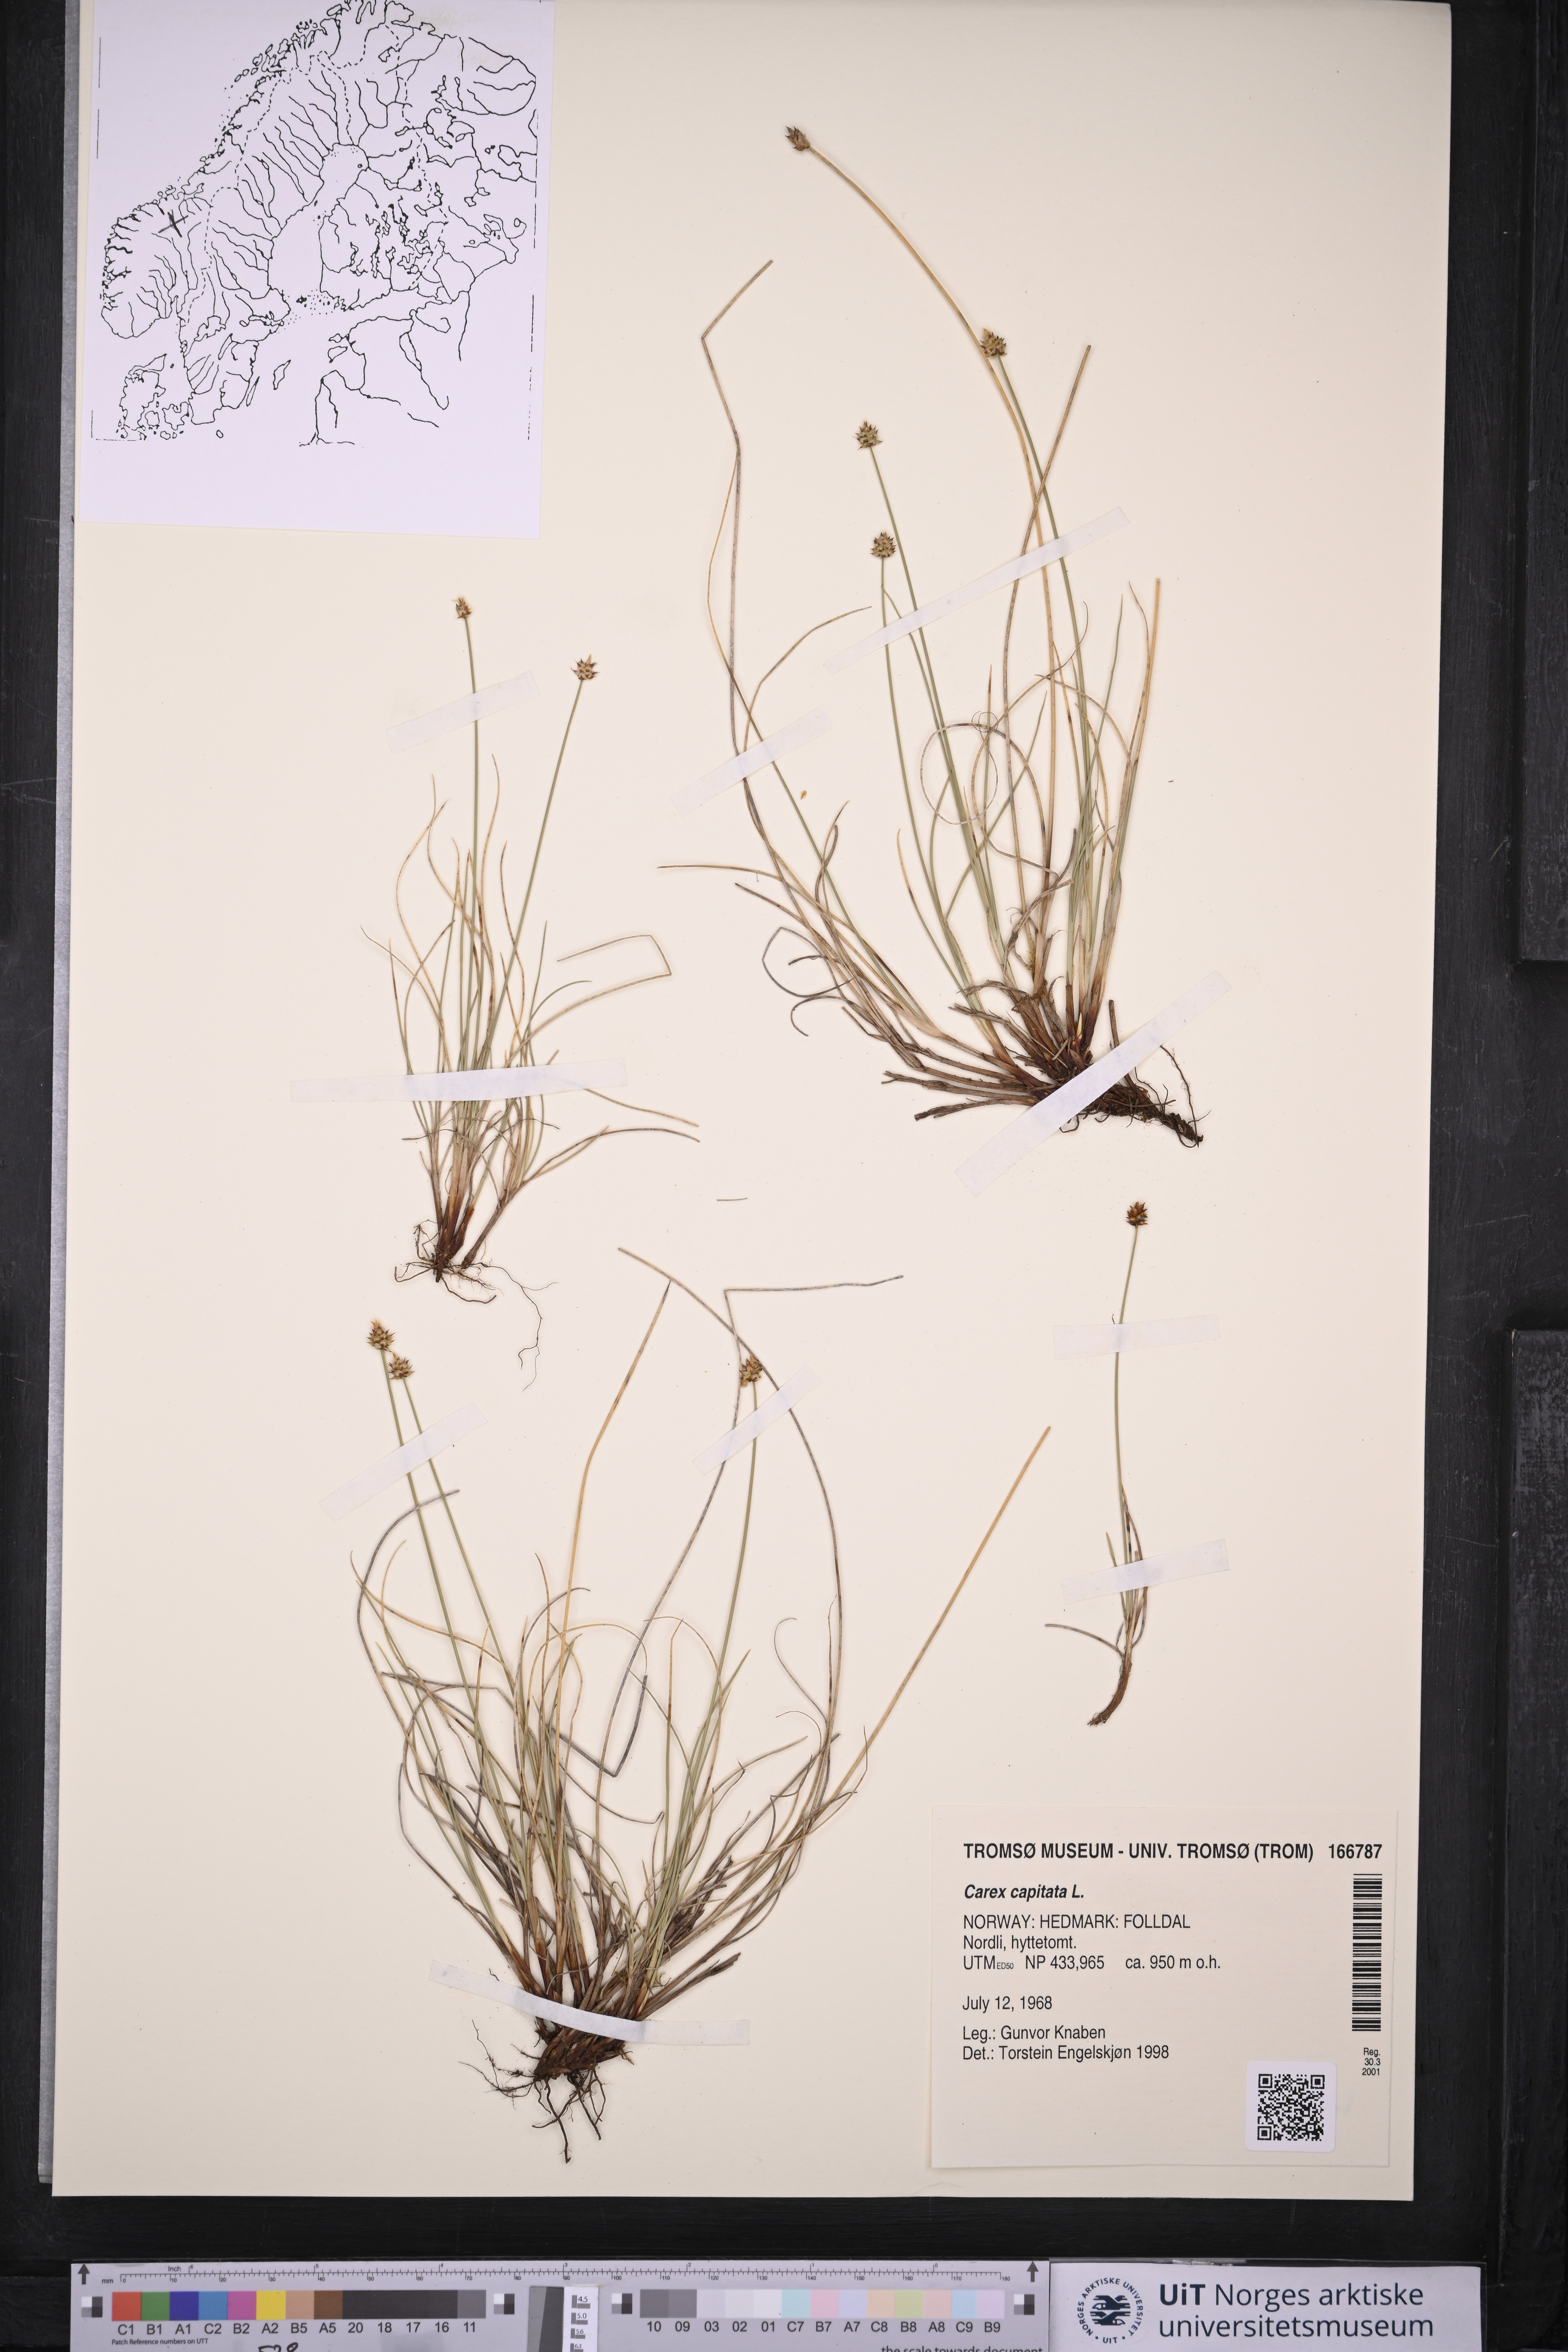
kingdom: Plantae
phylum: Tracheophyta
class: Liliopsida
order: Poales
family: Cyperaceae
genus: Carex
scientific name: Carex capitata
